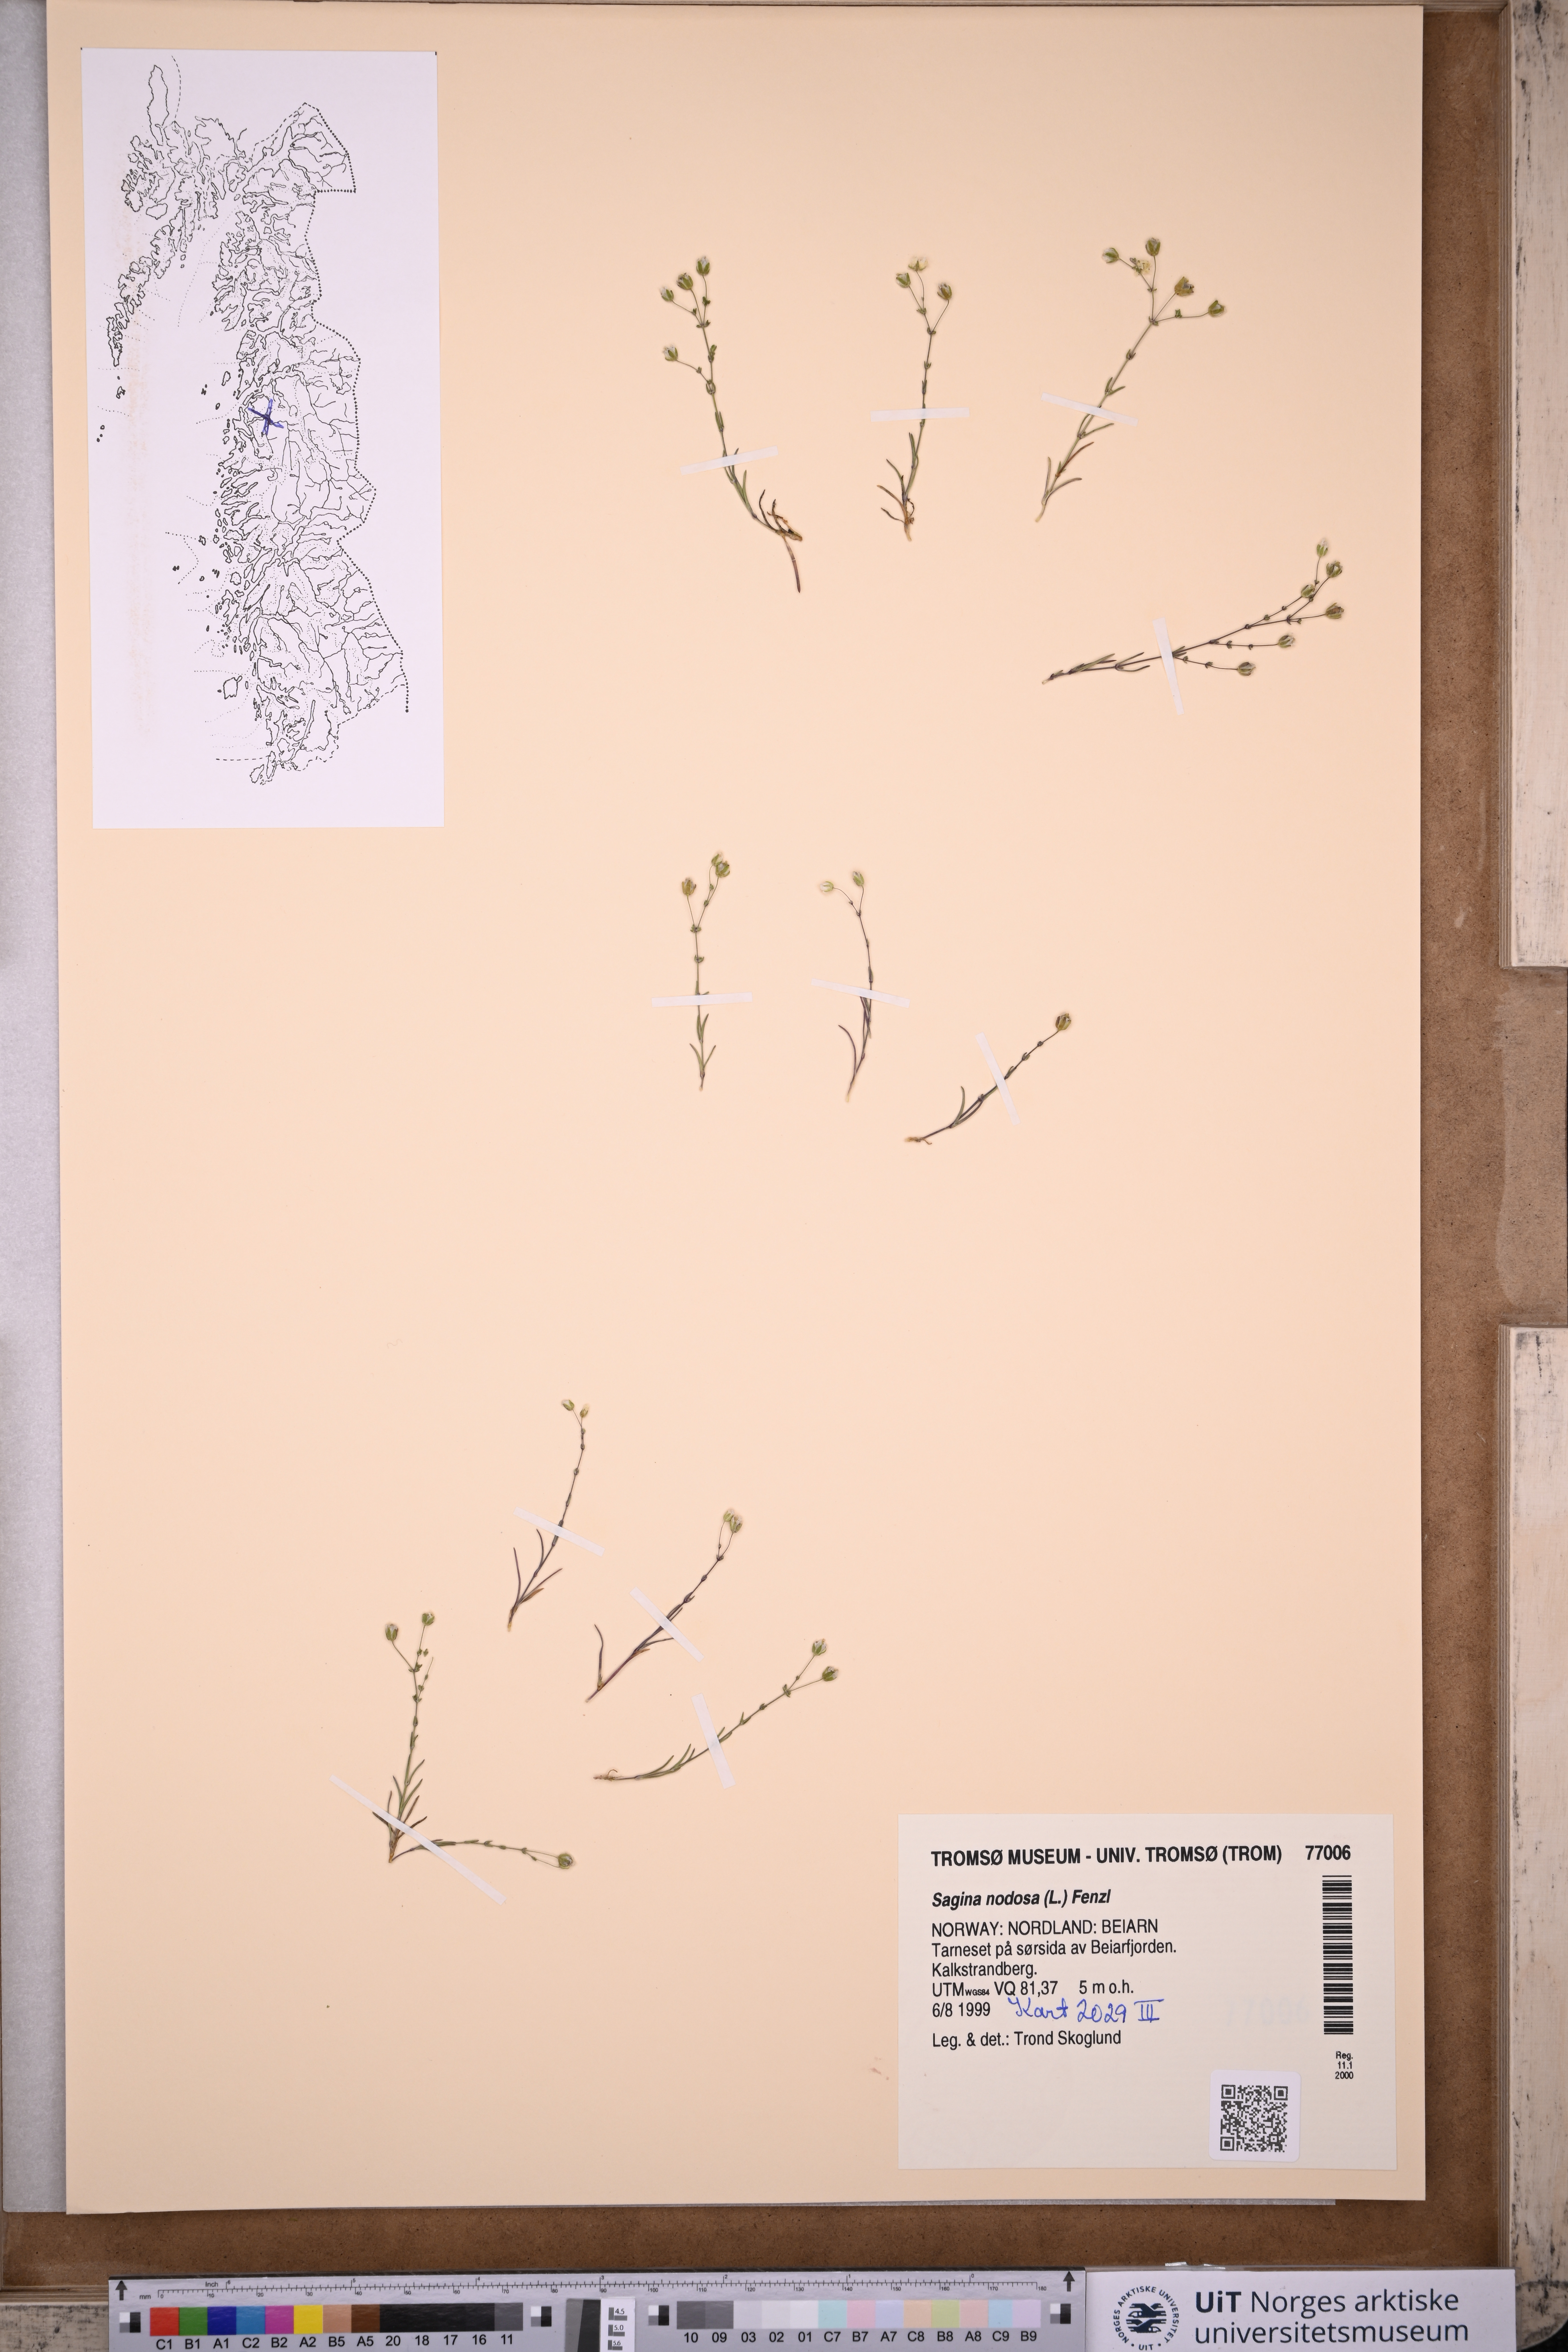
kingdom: Plantae
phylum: Tracheophyta
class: Magnoliopsida
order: Caryophyllales
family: Caryophyllaceae
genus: Sagina
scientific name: Sagina nodosa
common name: Knotted pearlwort
